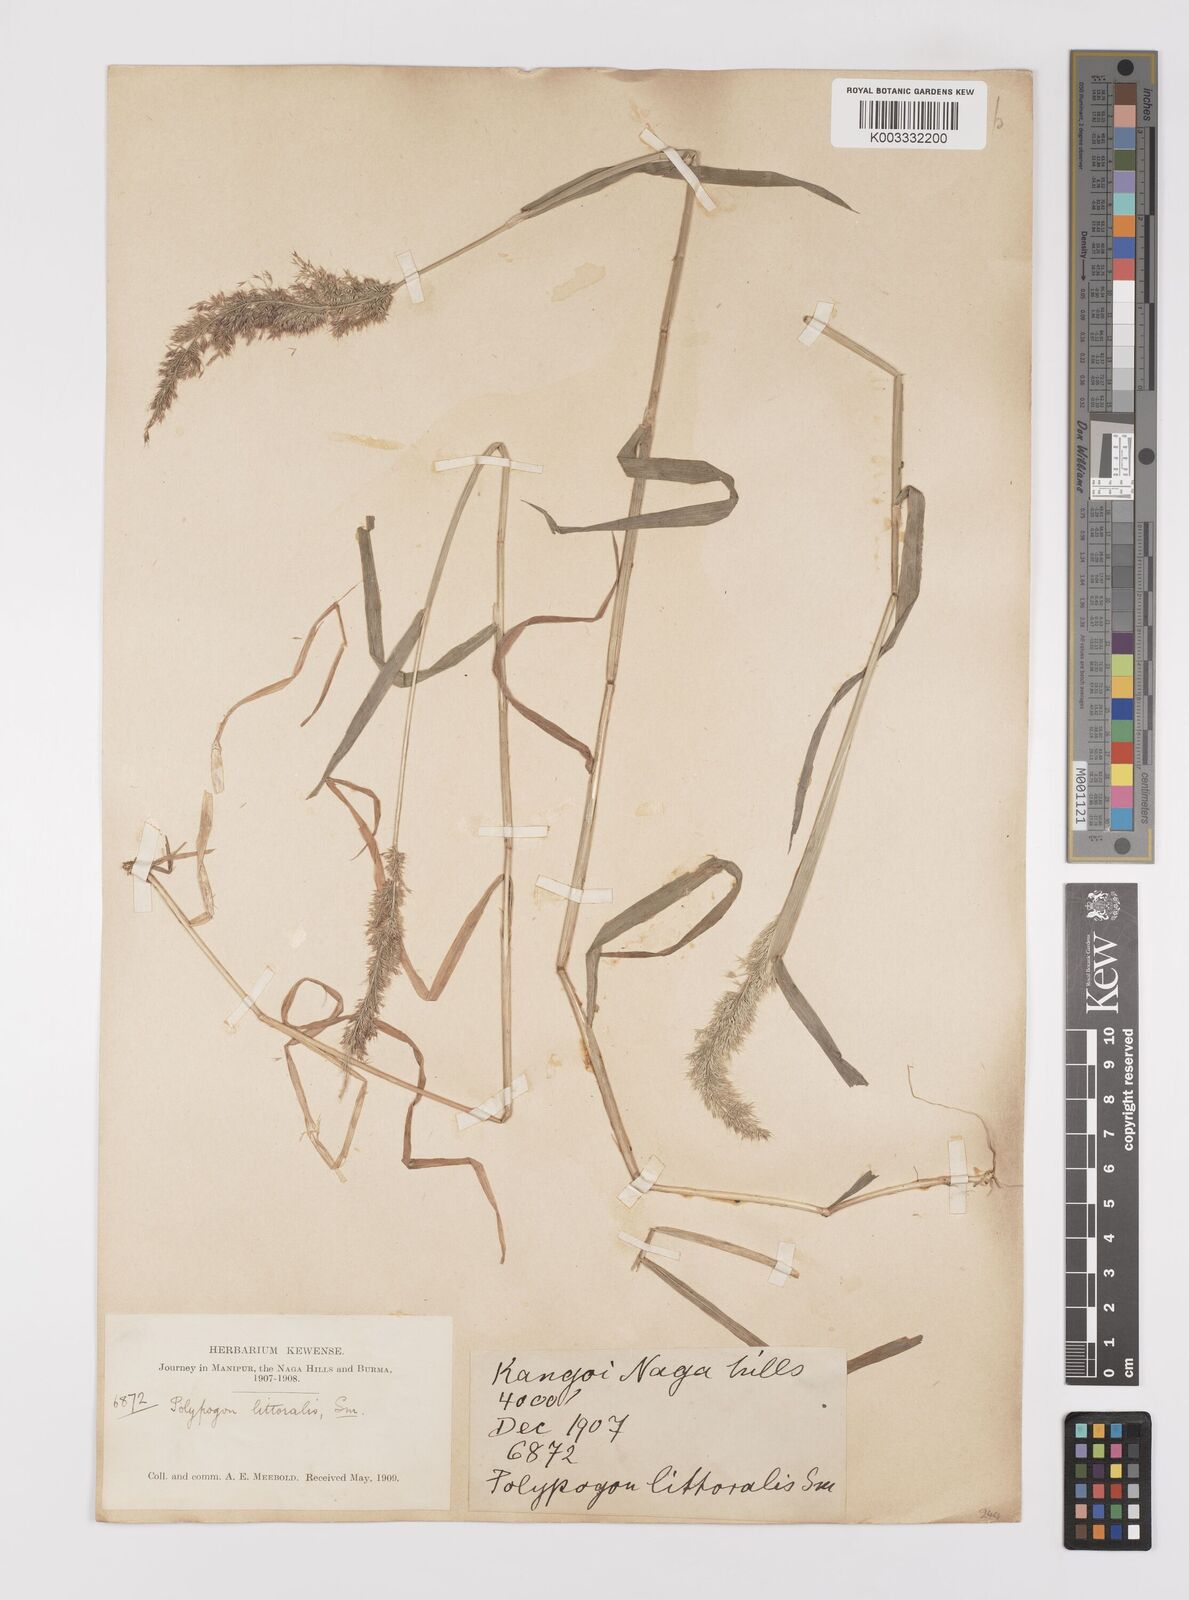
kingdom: Plantae
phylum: Tracheophyta
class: Liliopsida
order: Poales
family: Poaceae
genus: Polypogon
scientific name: Polypogon fugax
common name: Asia minor bluegrass
